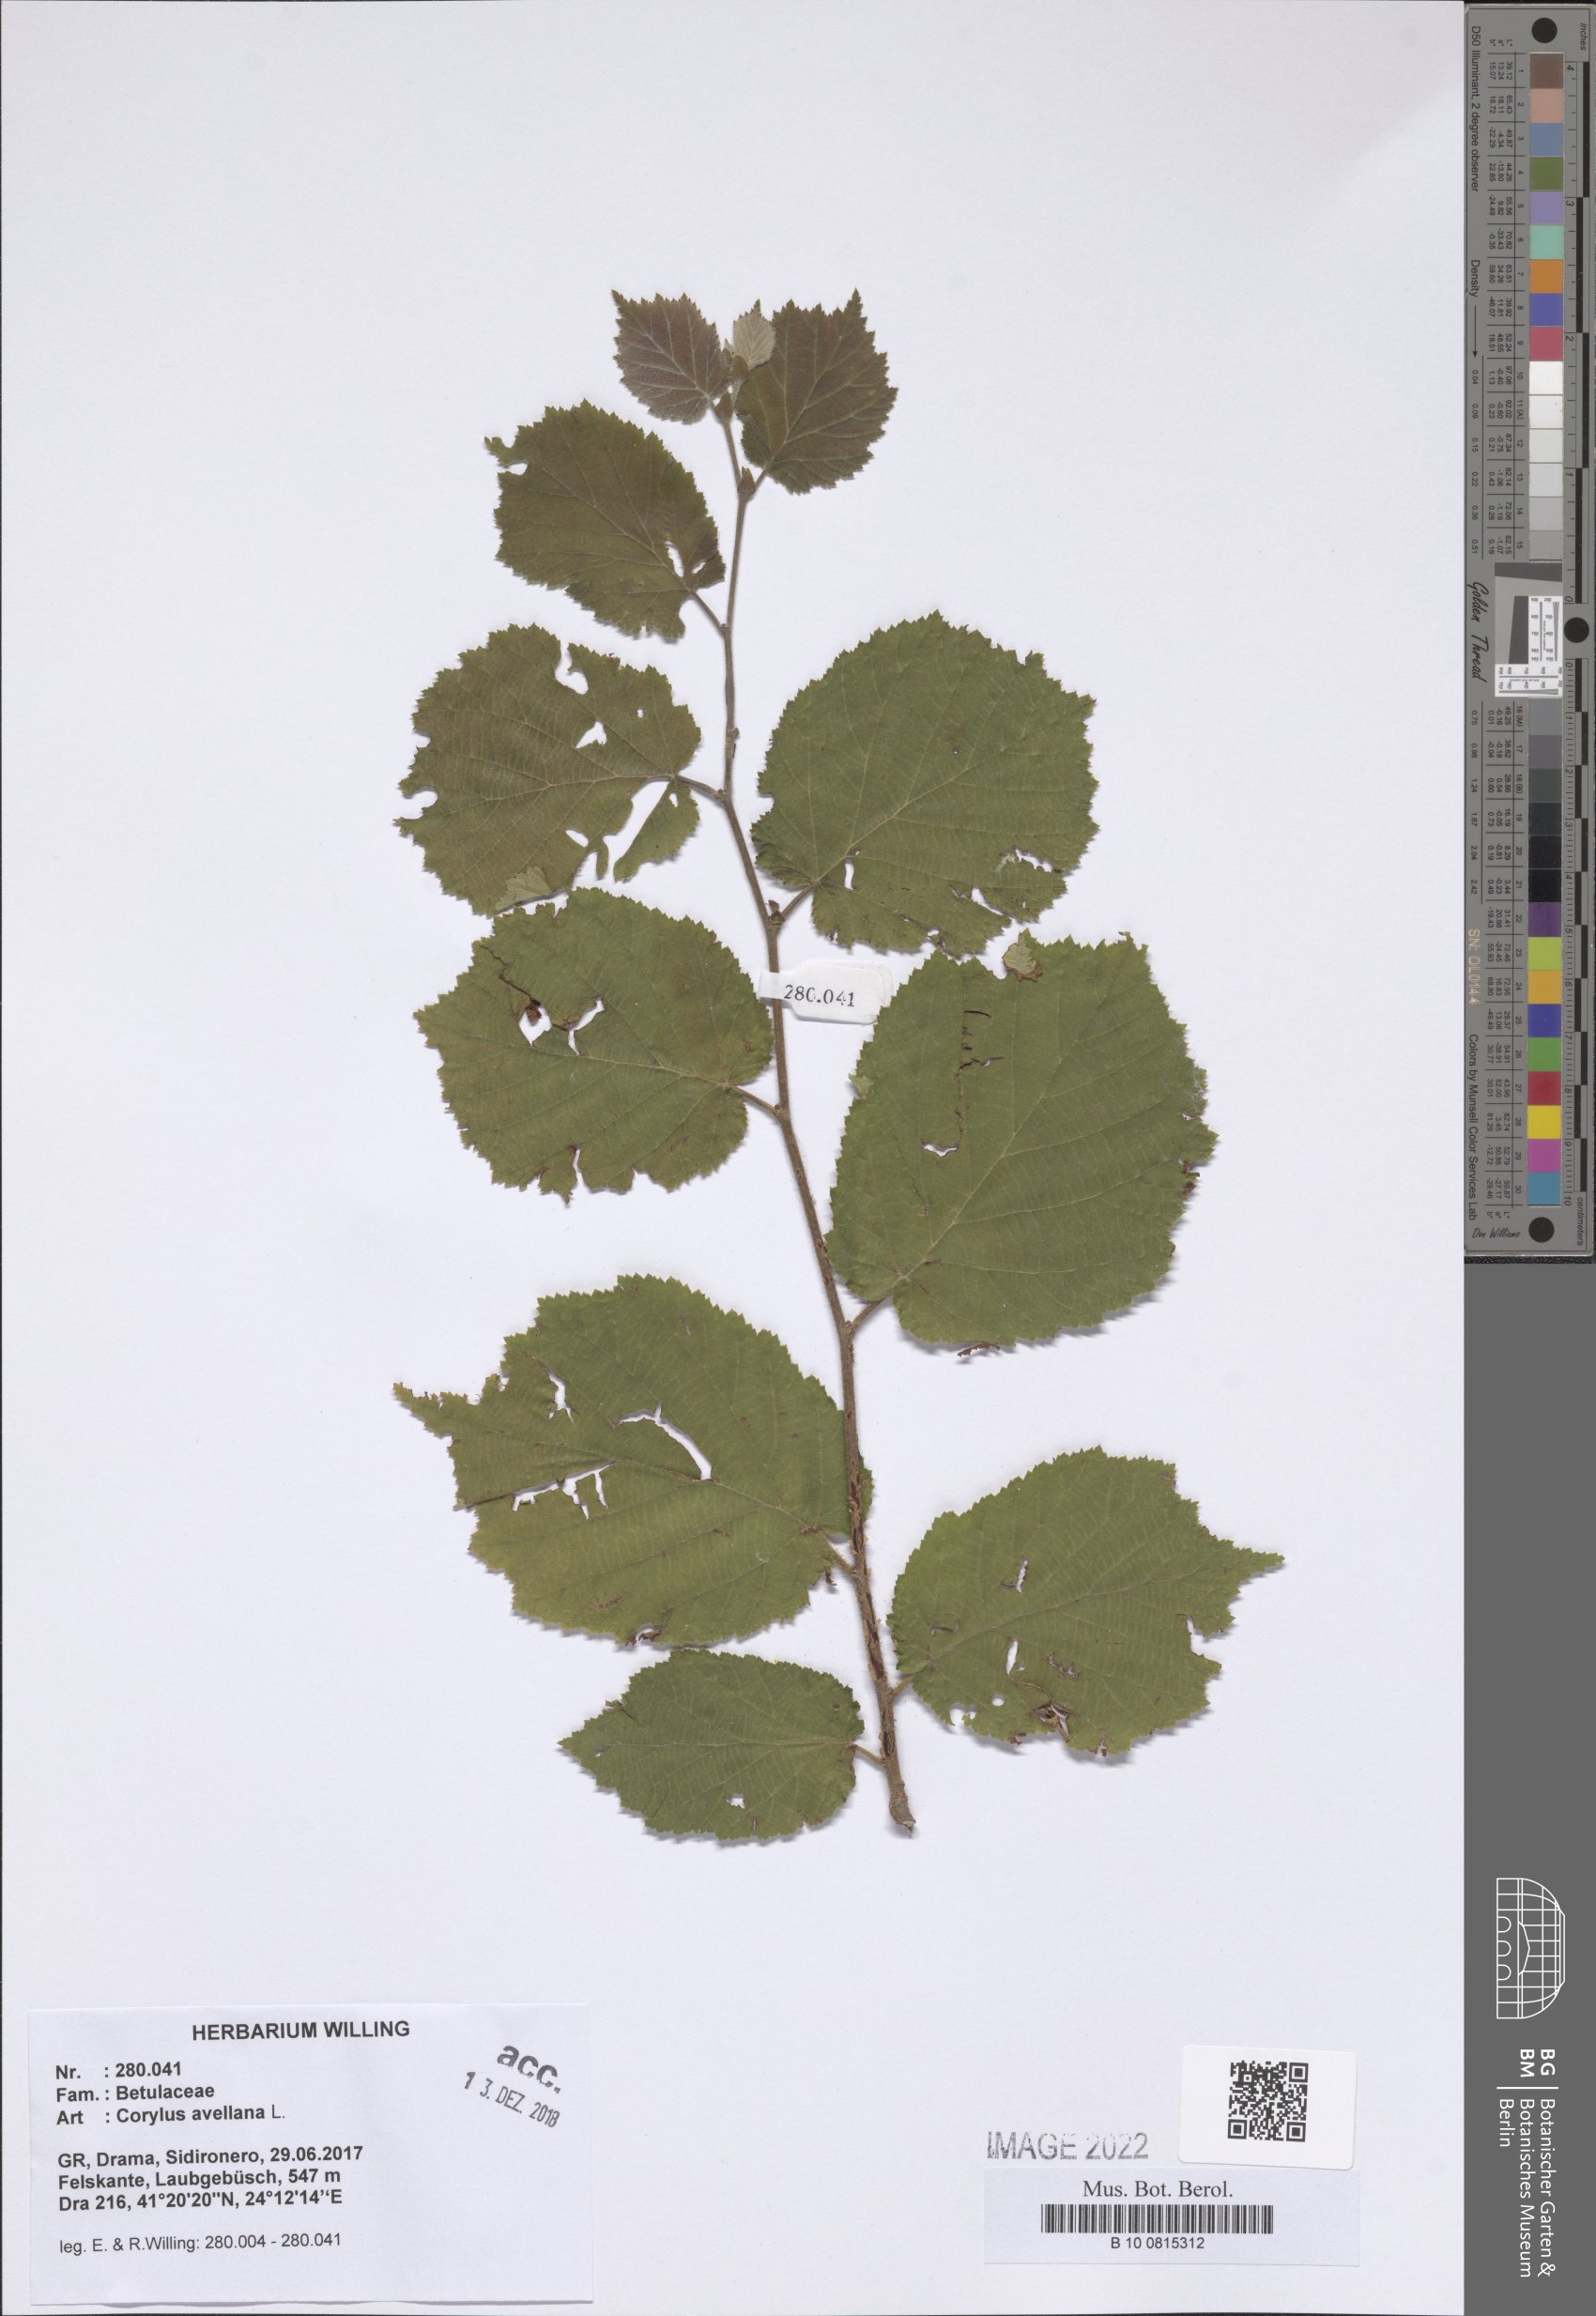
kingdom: Plantae
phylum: Tracheophyta
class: Magnoliopsida
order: Fagales
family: Betulaceae
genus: Corylus
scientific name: Corylus avellana
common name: European hazel
